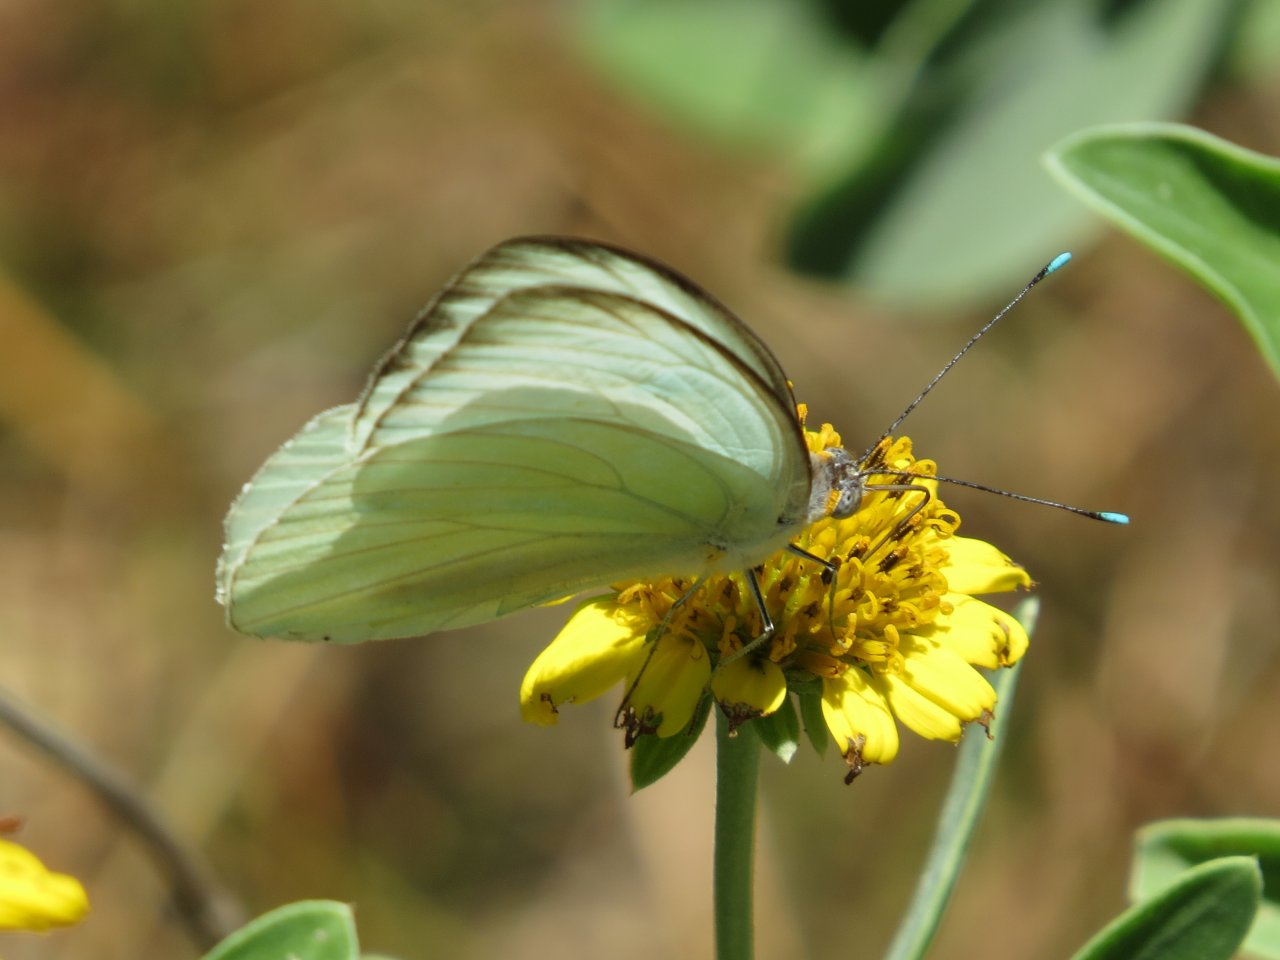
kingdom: Animalia
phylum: Arthropoda
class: Insecta
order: Lepidoptera
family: Pieridae
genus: Ascia
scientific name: Ascia monuste
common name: Great Southern White
